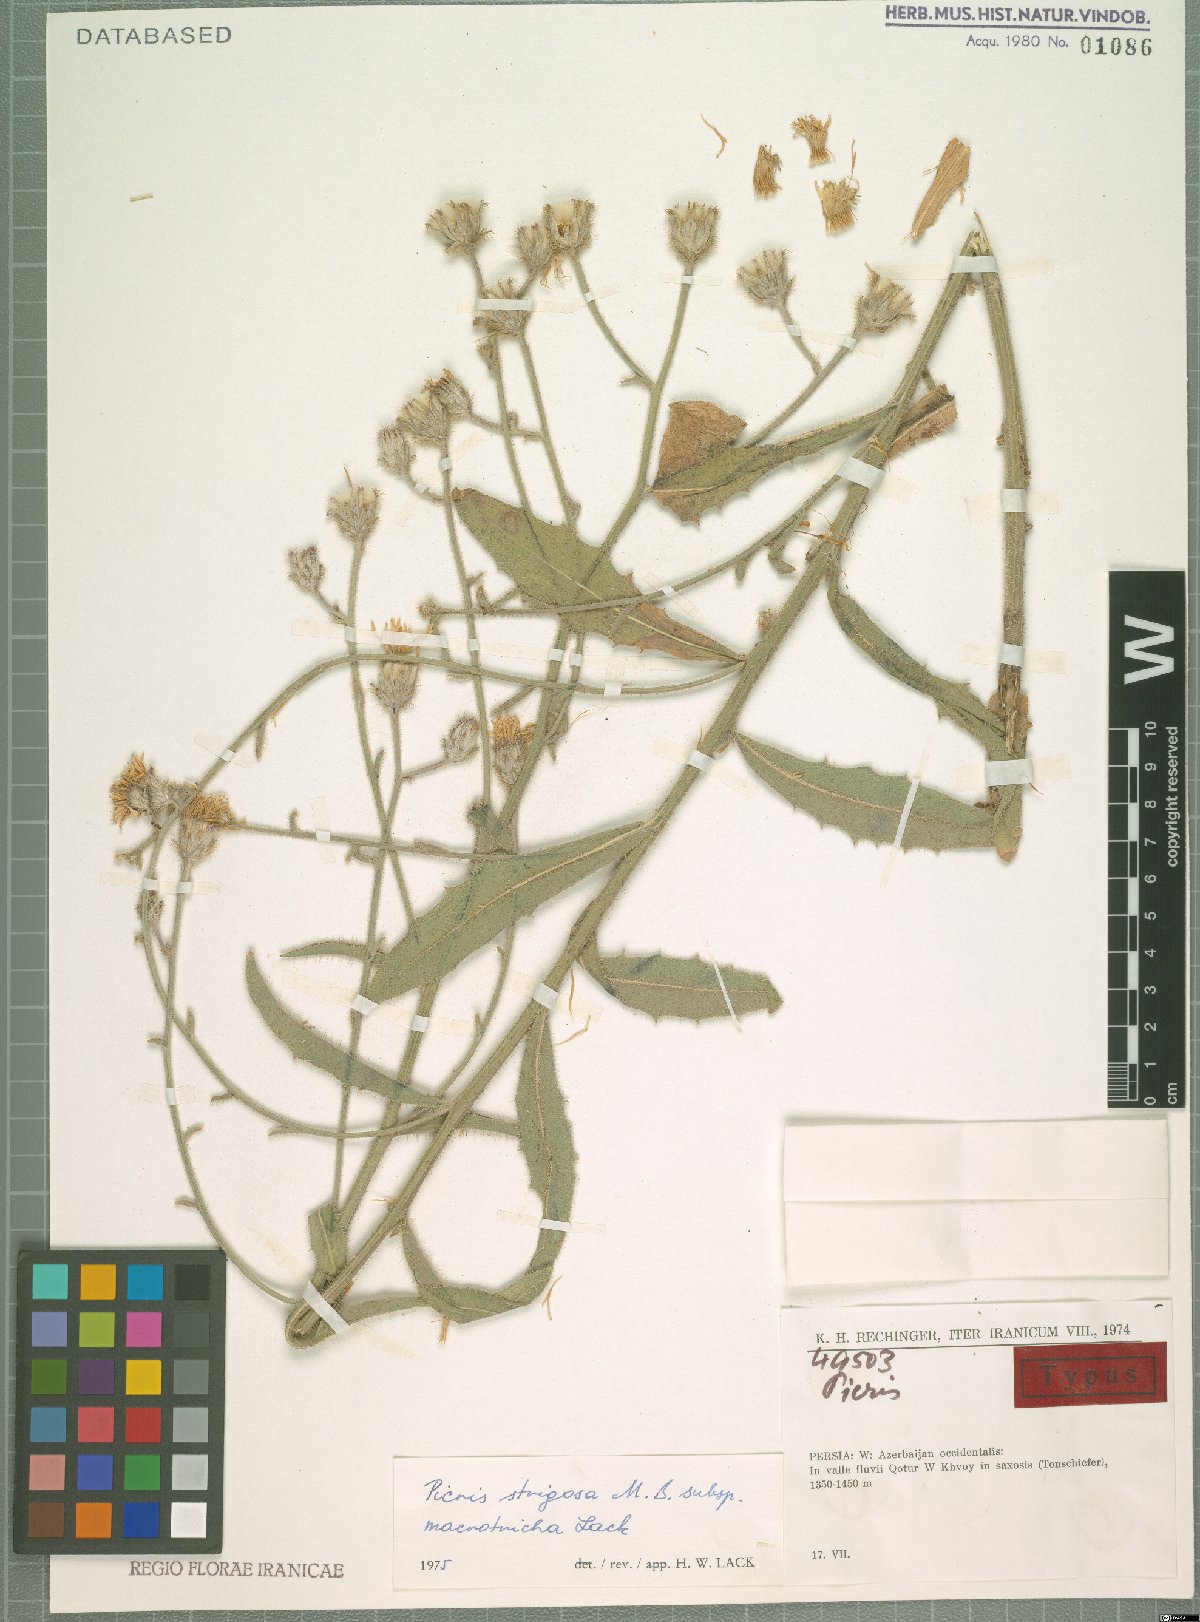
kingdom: Plantae
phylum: Tracheophyta
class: Magnoliopsida
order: Asterales
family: Asteraceae
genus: Picris
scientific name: Picris strigosa
